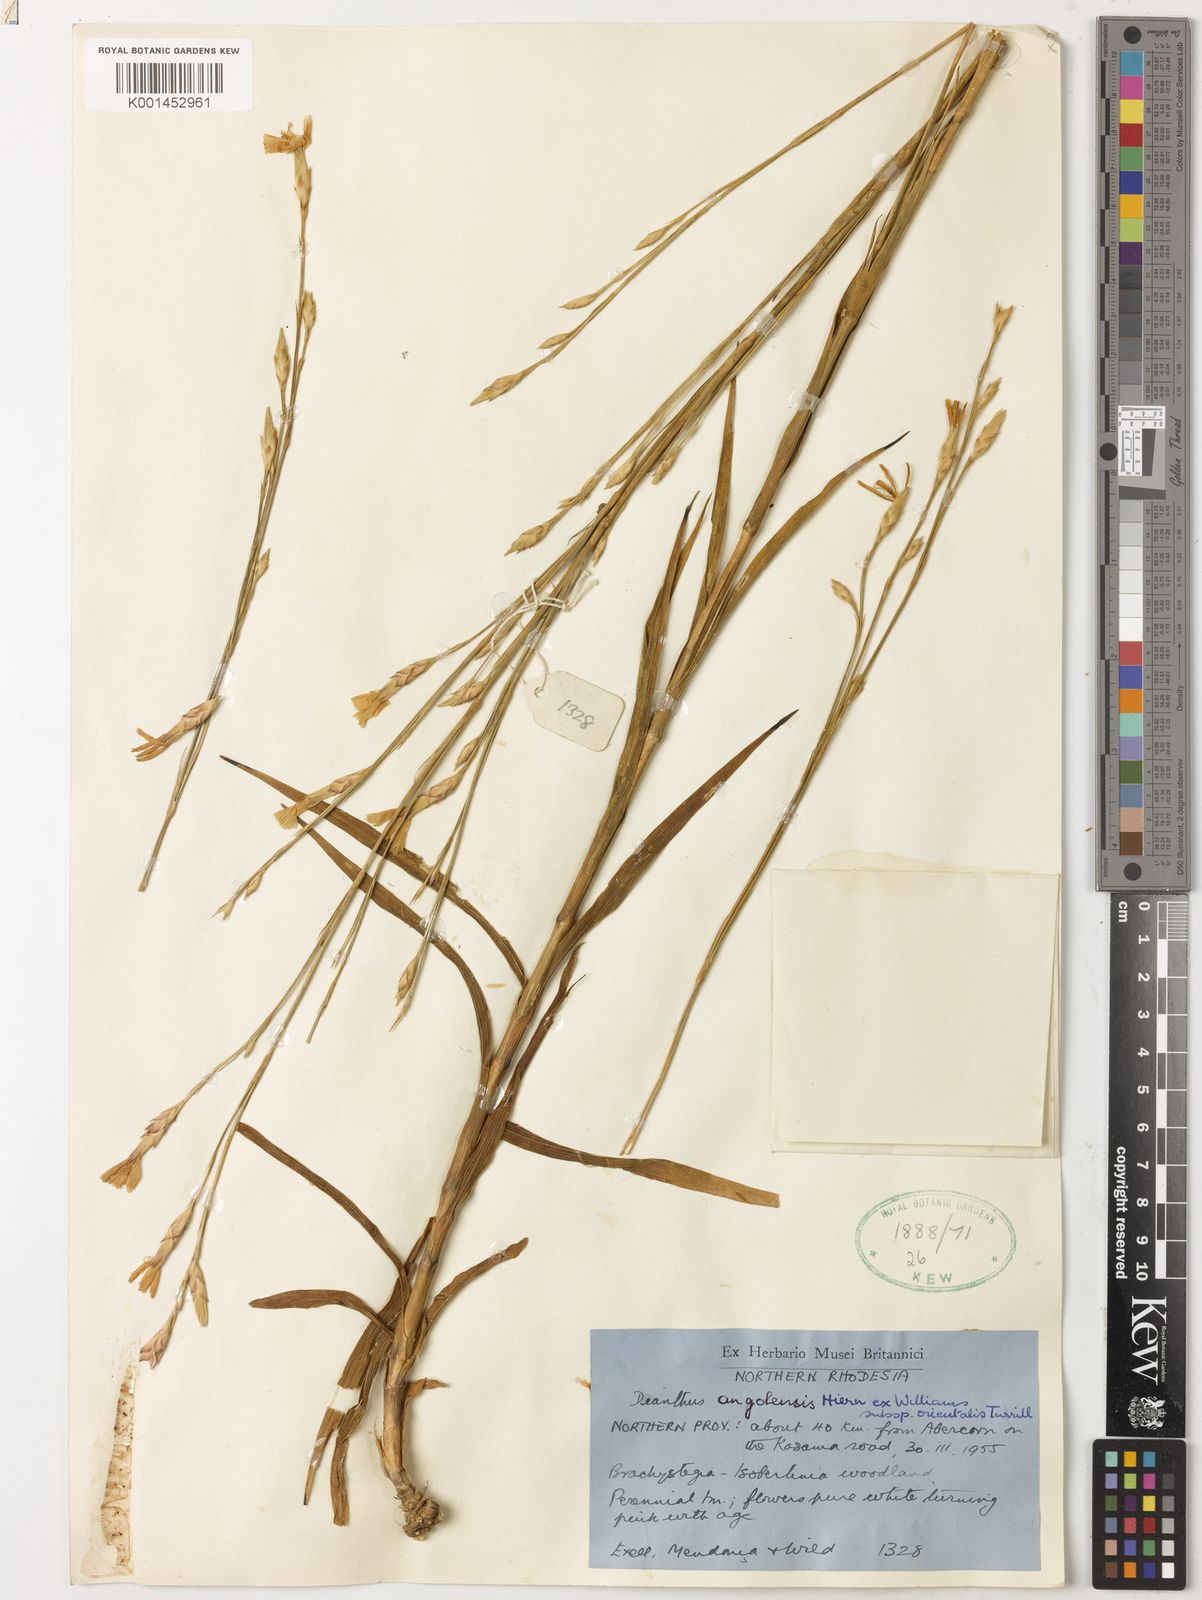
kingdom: Plantae
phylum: Tracheophyta
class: Magnoliopsida
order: Caryophyllales
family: Caryophyllaceae
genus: Dianthus
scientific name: Dianthus angolensis
